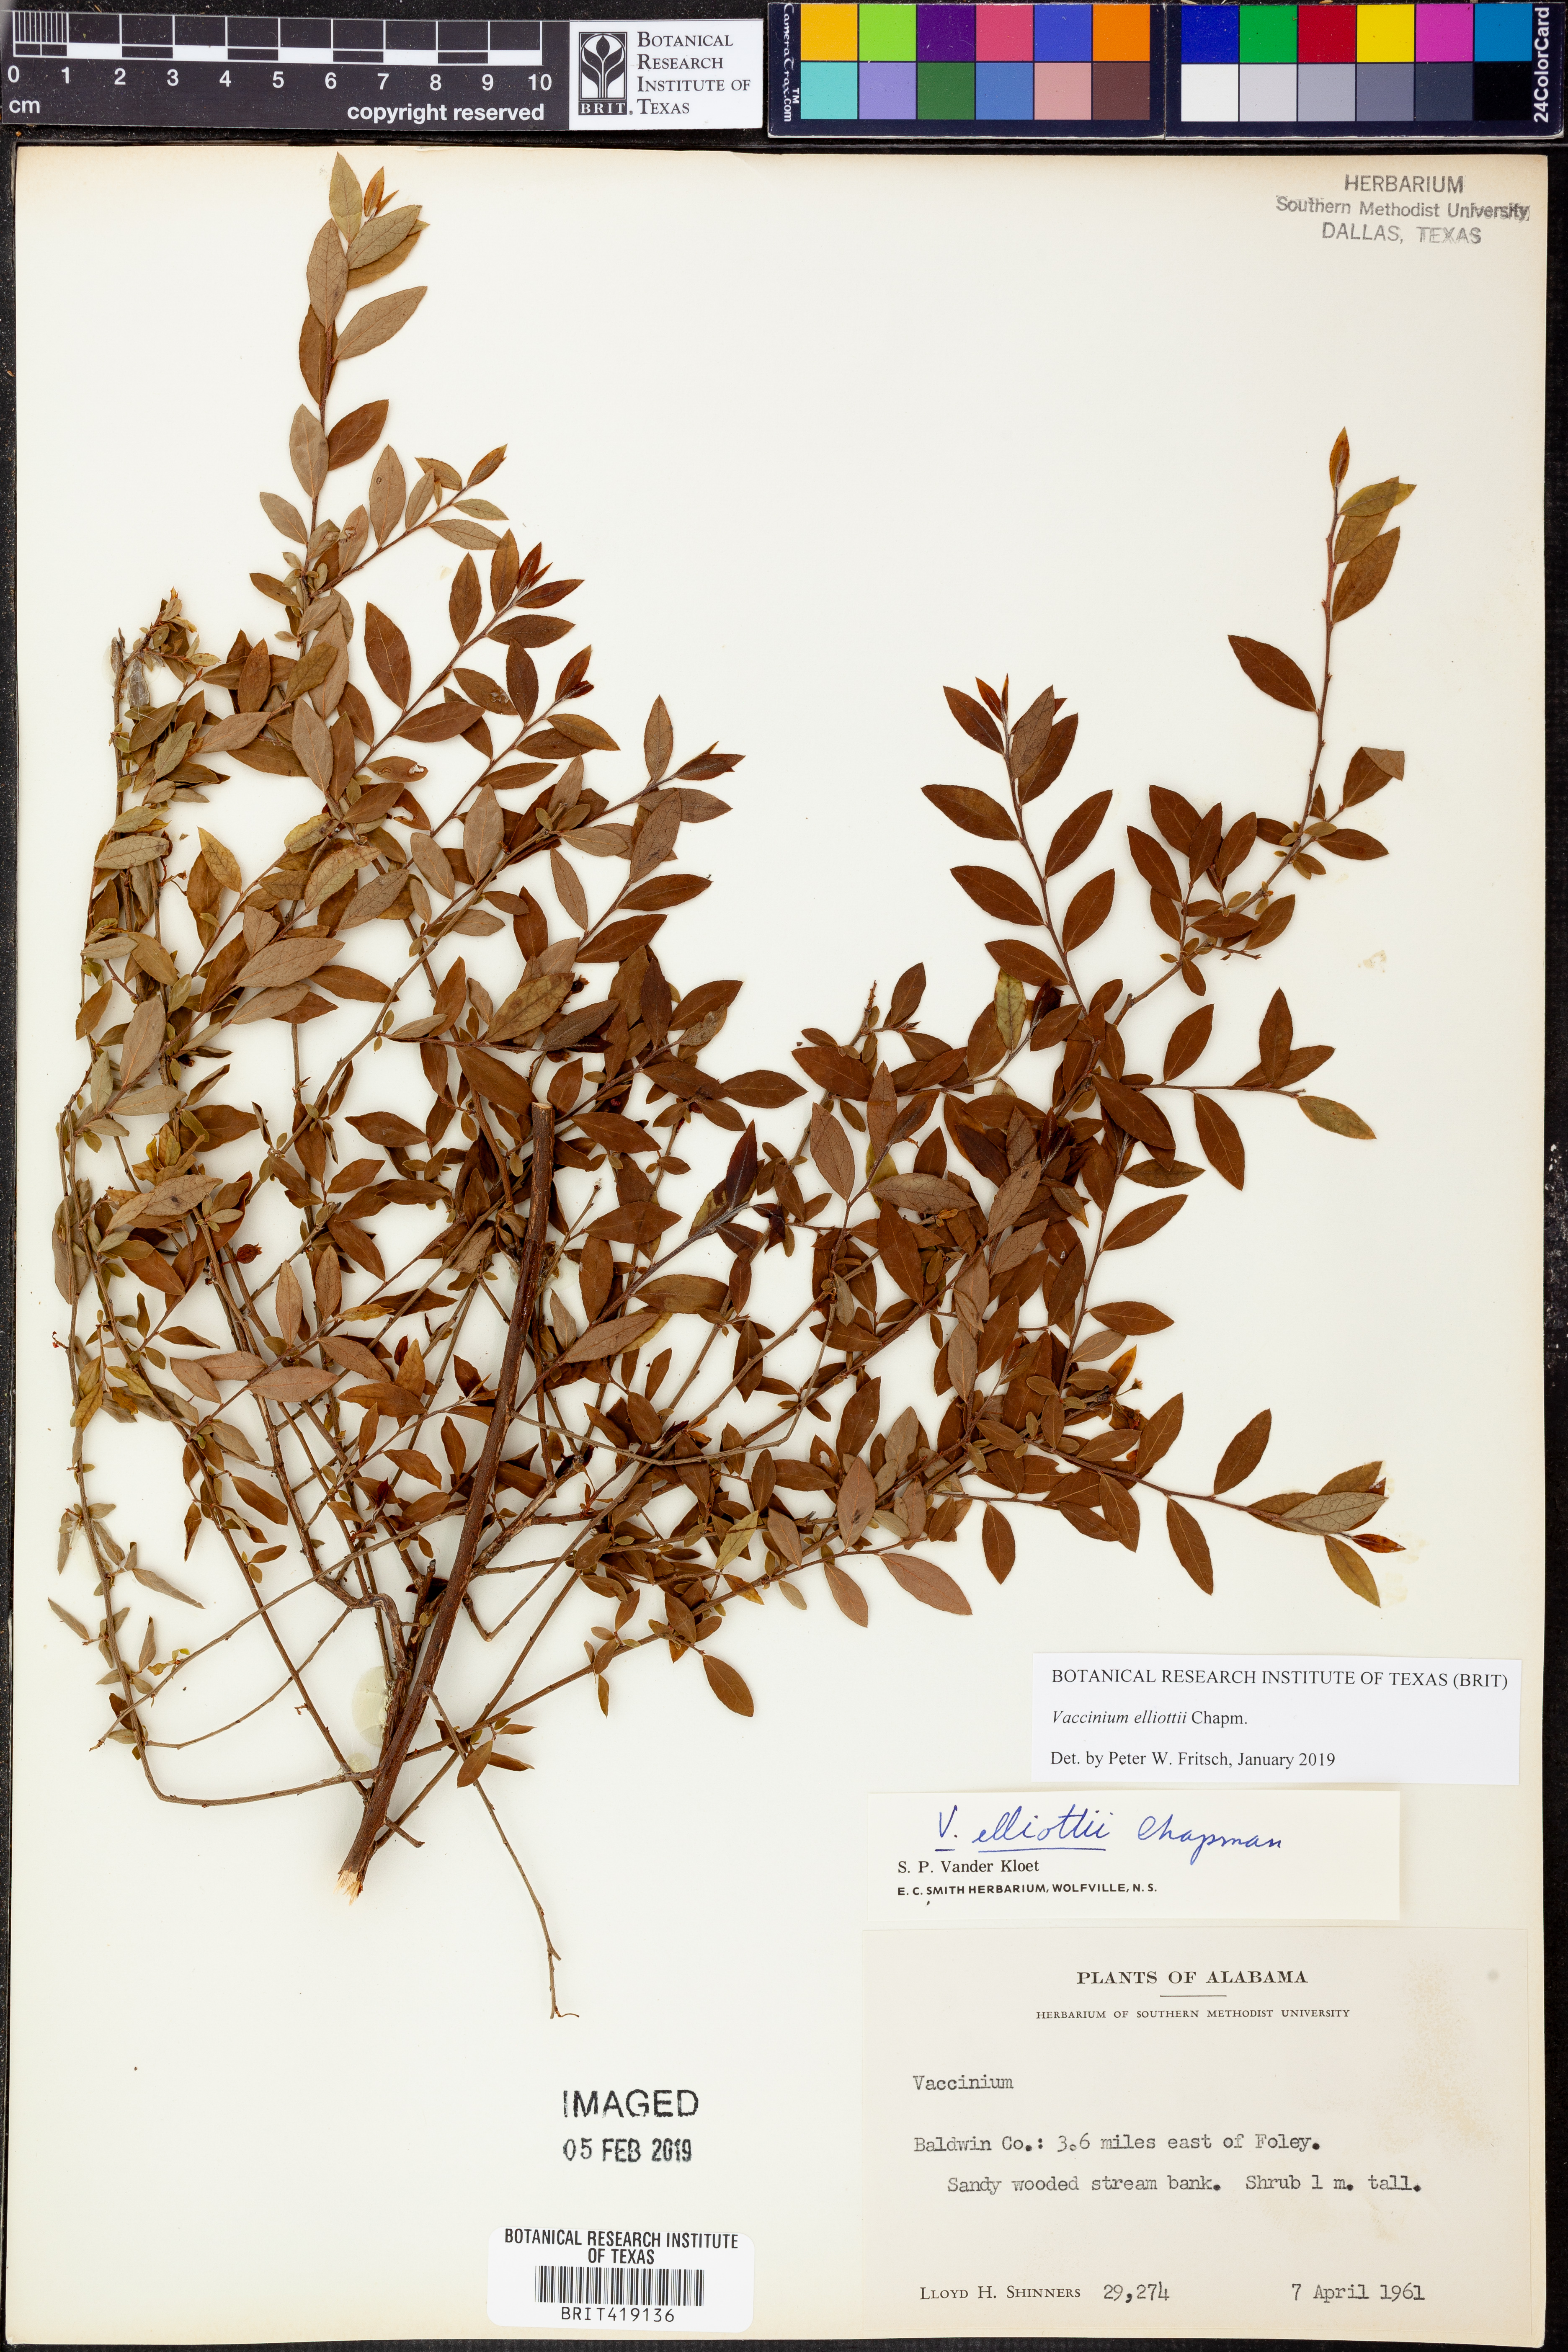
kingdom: Plantae
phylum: Tracheophyta
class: Magnoliopsida
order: Ericales
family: Ericaceae
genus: Vaccinium
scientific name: Vaccinium corymbosum
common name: Blueberry
